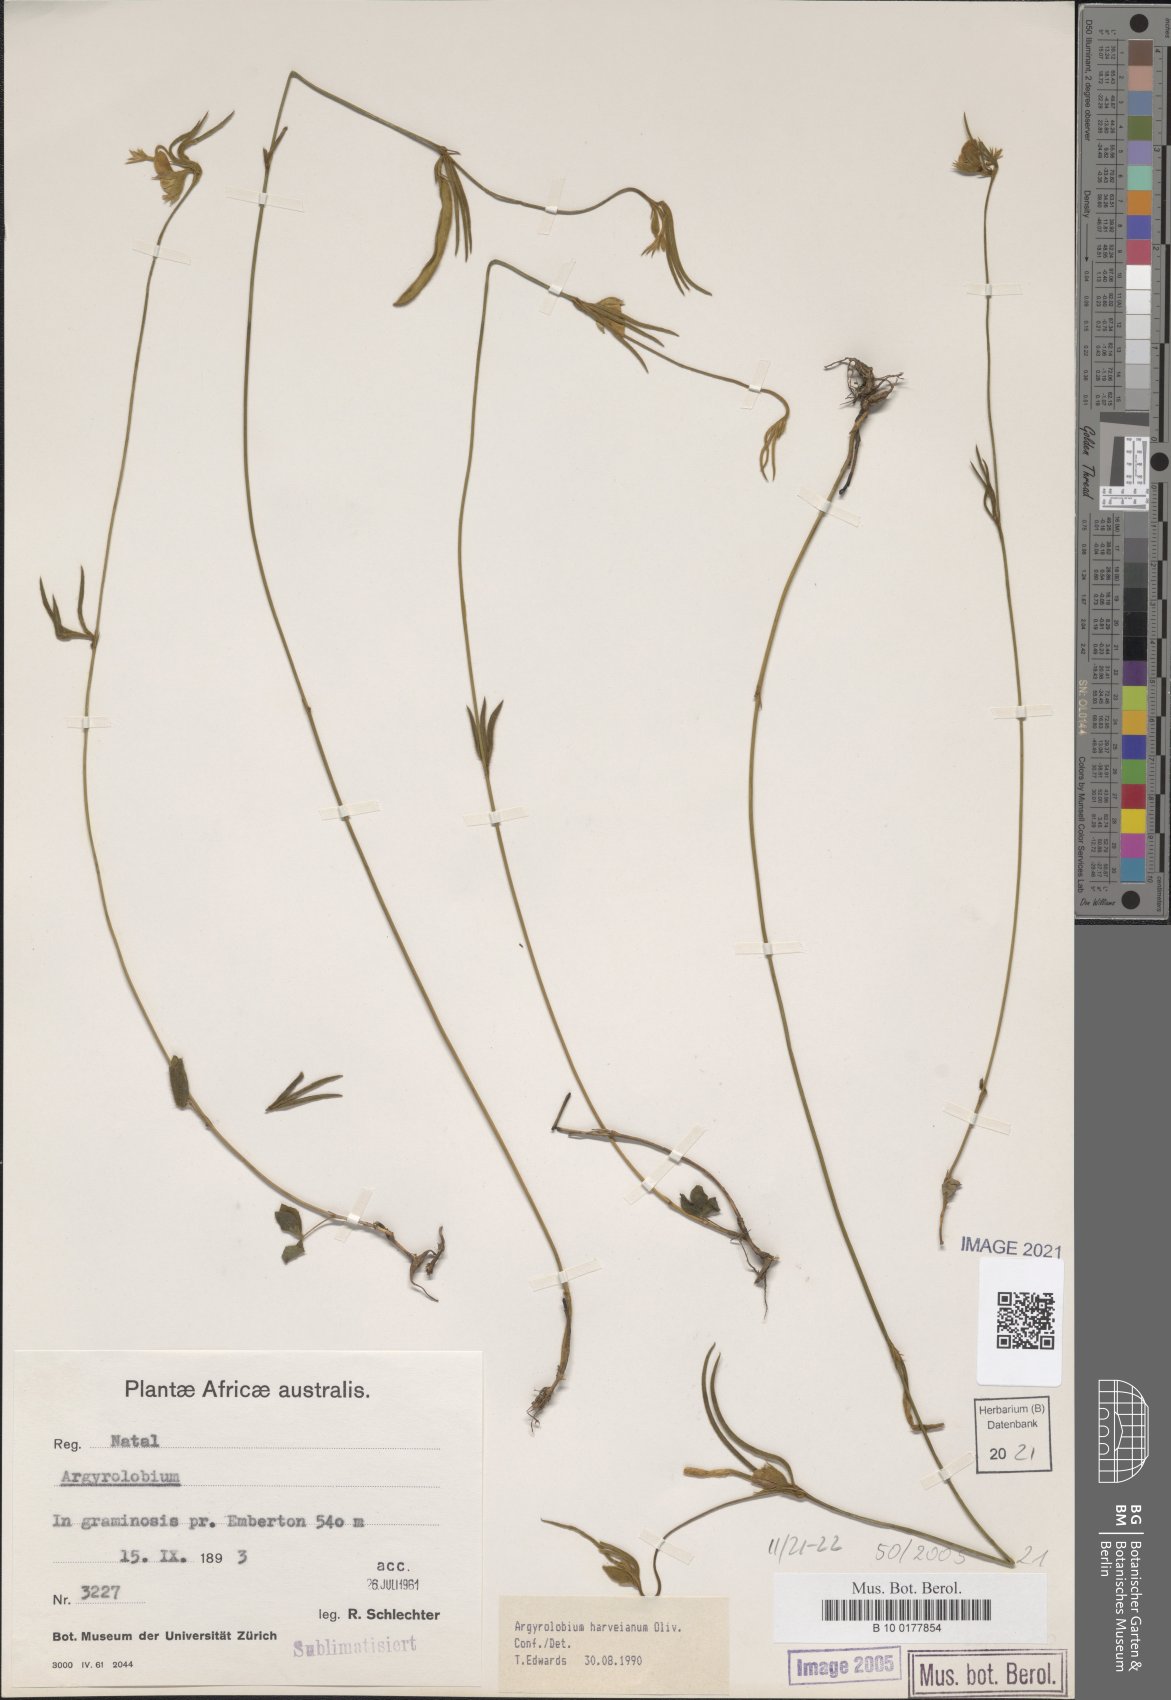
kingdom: Plantae
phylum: Tracheophyta
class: Magnoliopsida
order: Fabales
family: Fabaceae
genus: Argyrolobium
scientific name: Argyrolobium harveyanum
